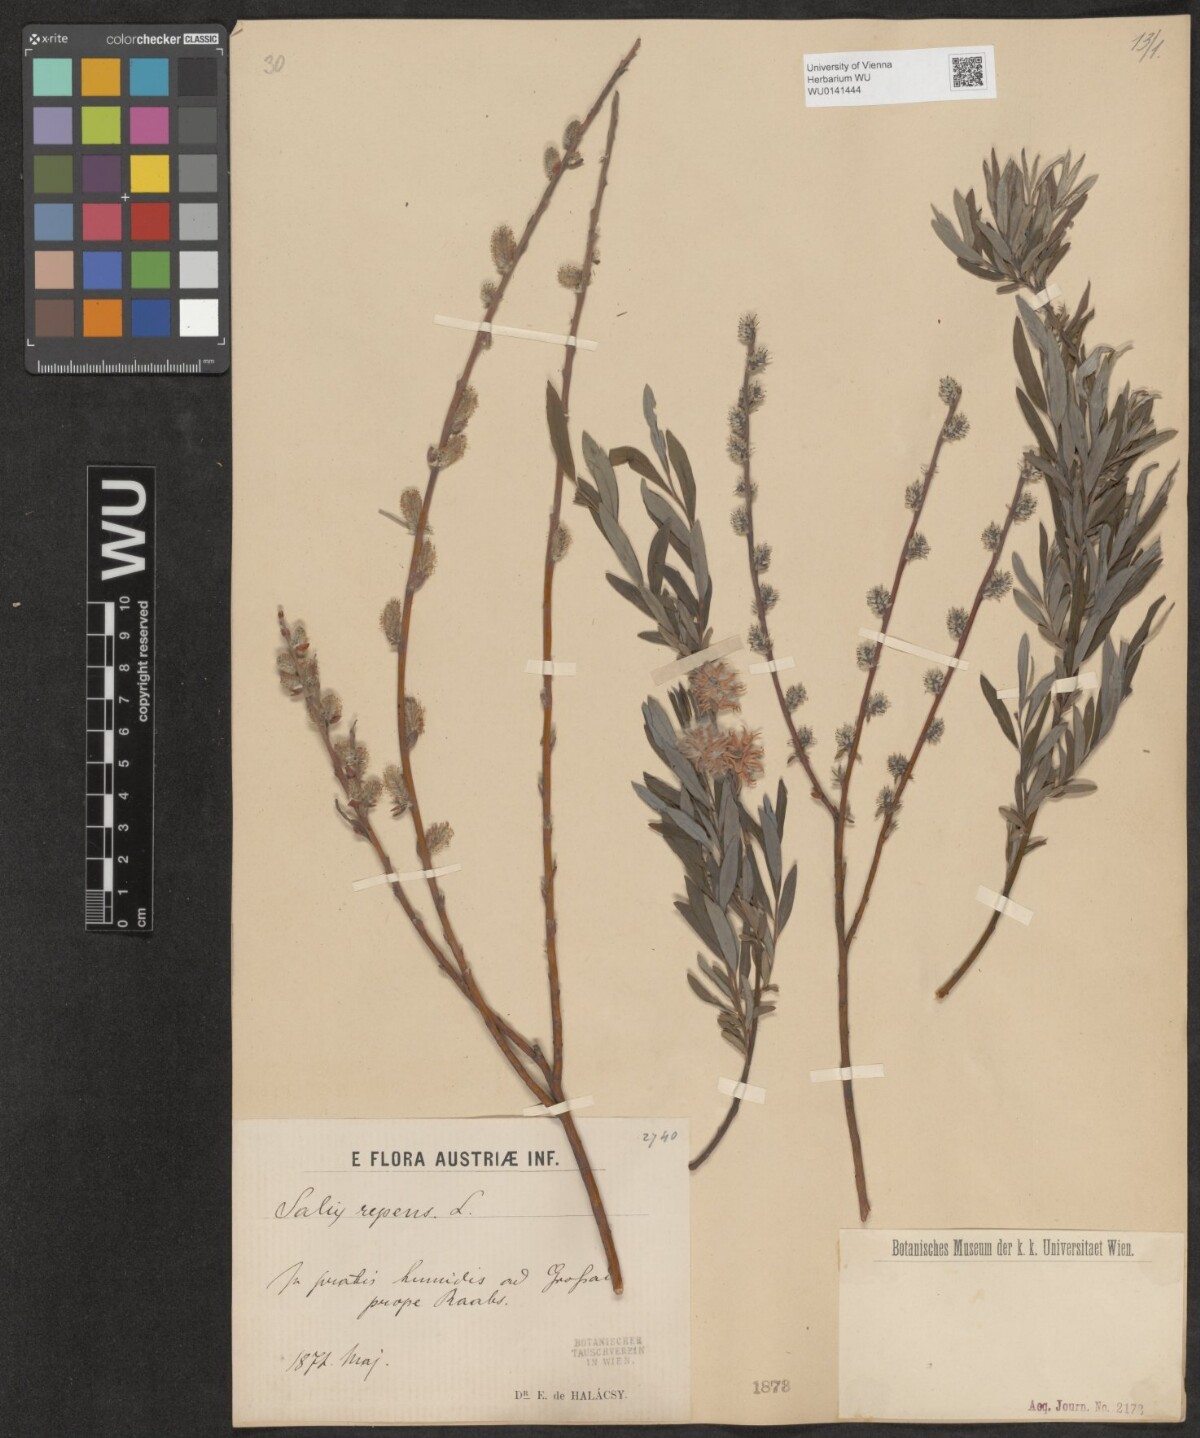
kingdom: Plantae
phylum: Tracheophyta
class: Magnoliopsida
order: Malpighiales
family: Salicaceae
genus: Salix
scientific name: Salix repens
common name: Creeping willow
